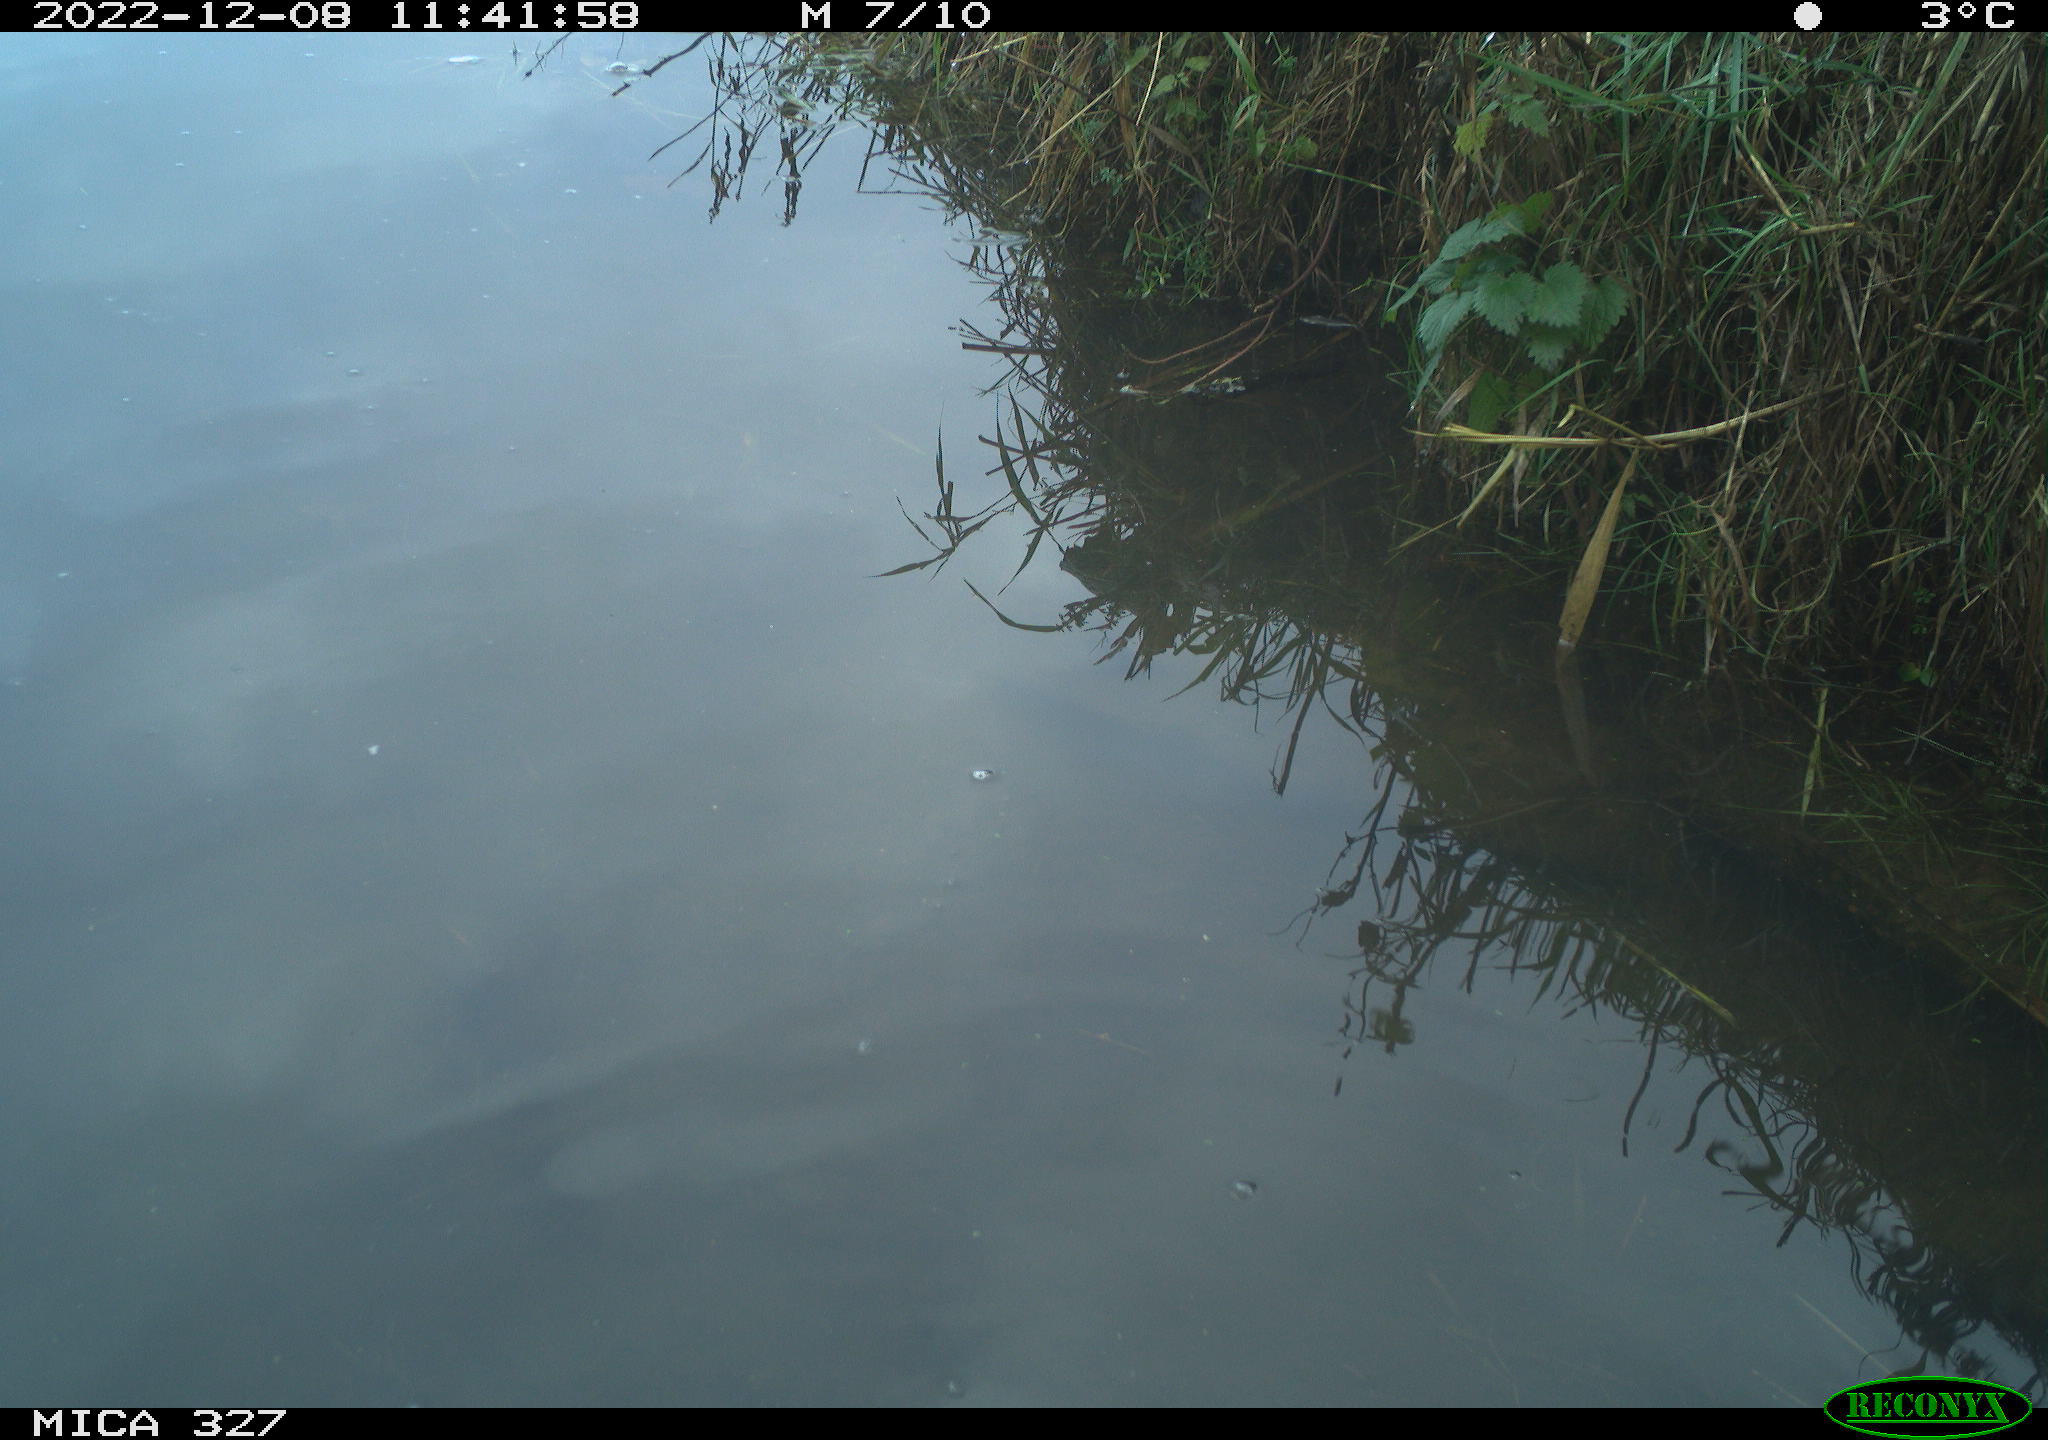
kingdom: Animalia
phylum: Chordata
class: Aves
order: Gruiformes
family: Rallidae
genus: Gallinula
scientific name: Gallinula chloropus
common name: Common moorhen
